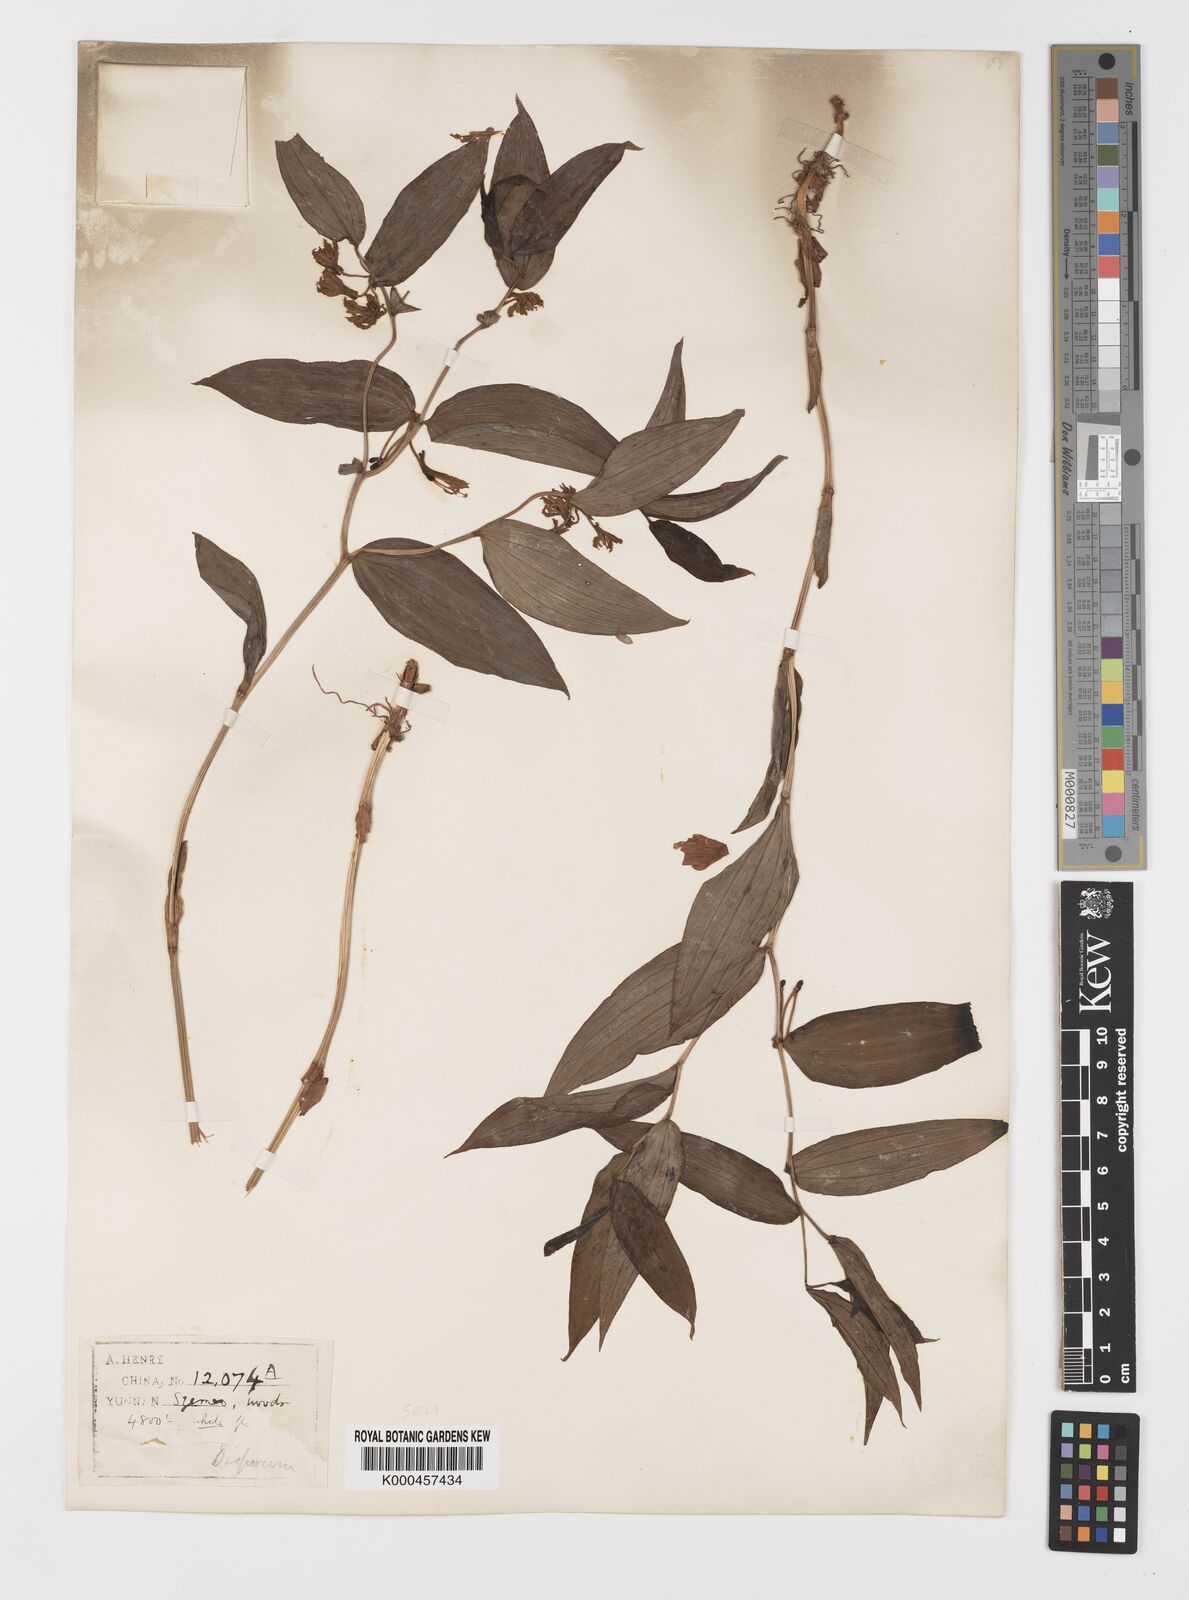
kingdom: Plantae
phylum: Tracheophyta
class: Liliopsida
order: Liliales
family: Colchicaceae
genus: Disporum
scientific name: Disporum calcaratum
